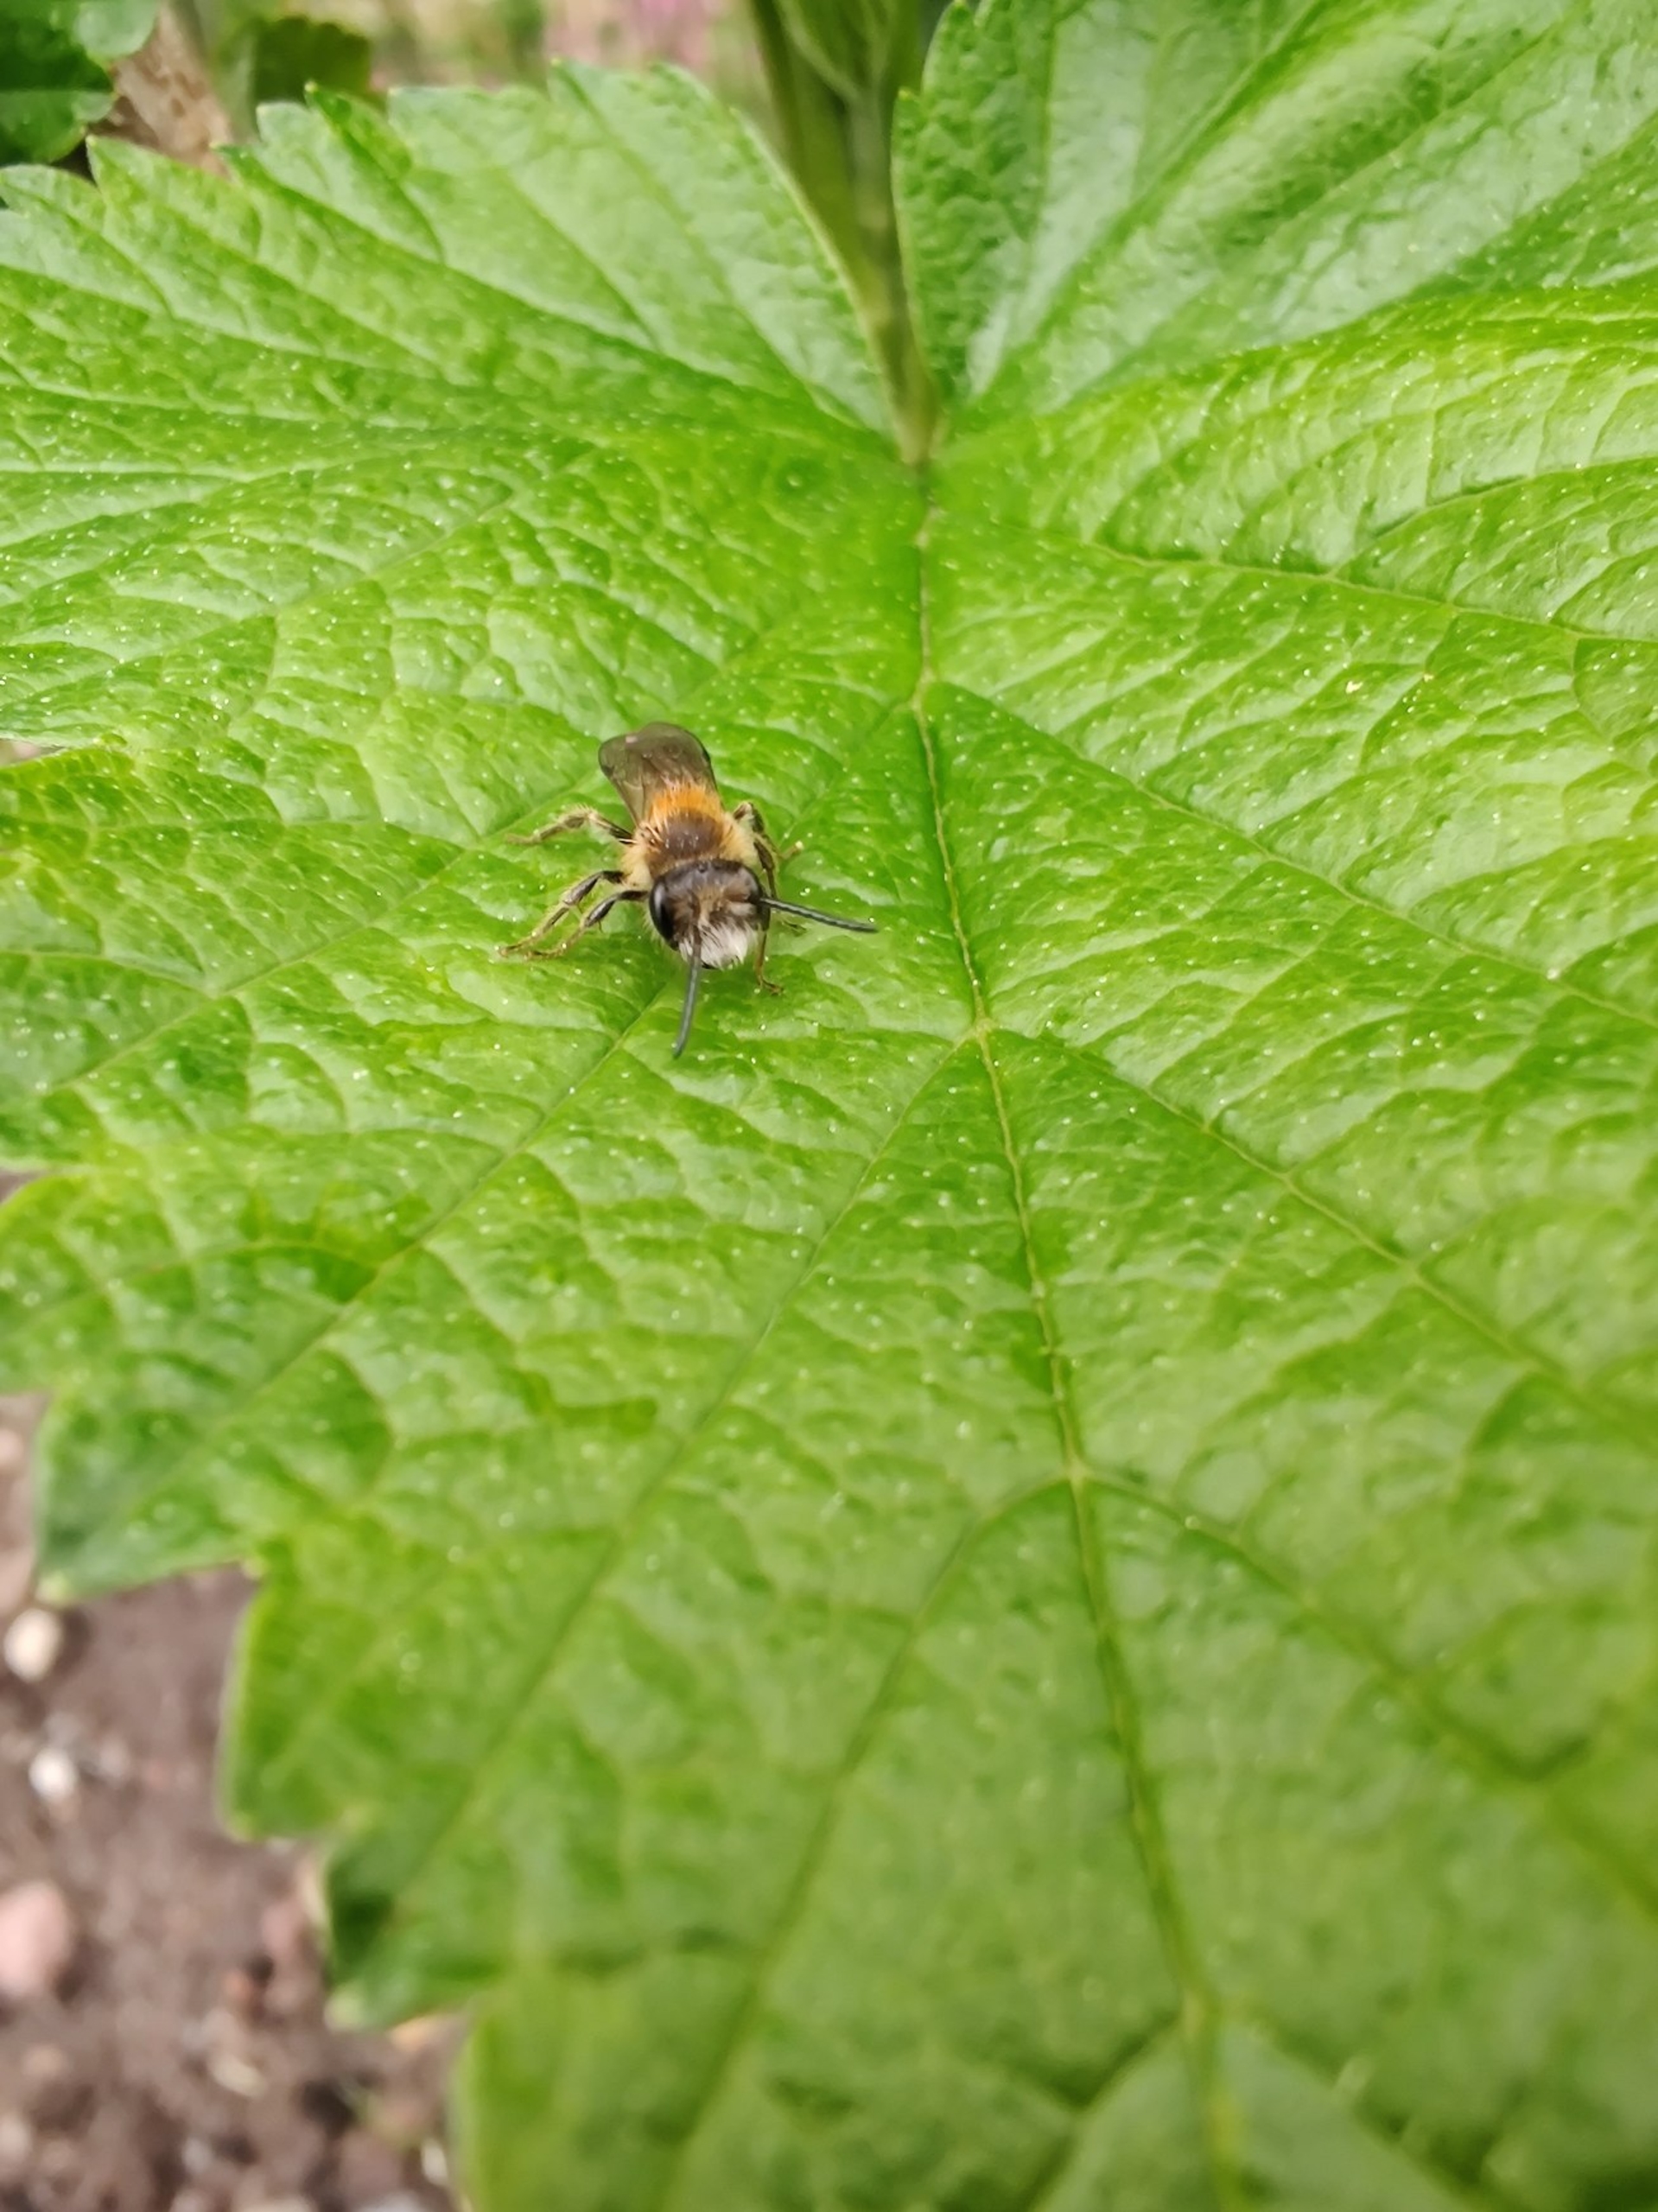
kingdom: Animalia
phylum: Arthropoda
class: Insecta
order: Hymenoptera
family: Andrenidae
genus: Andrena
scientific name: Andrena
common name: Jordbier
